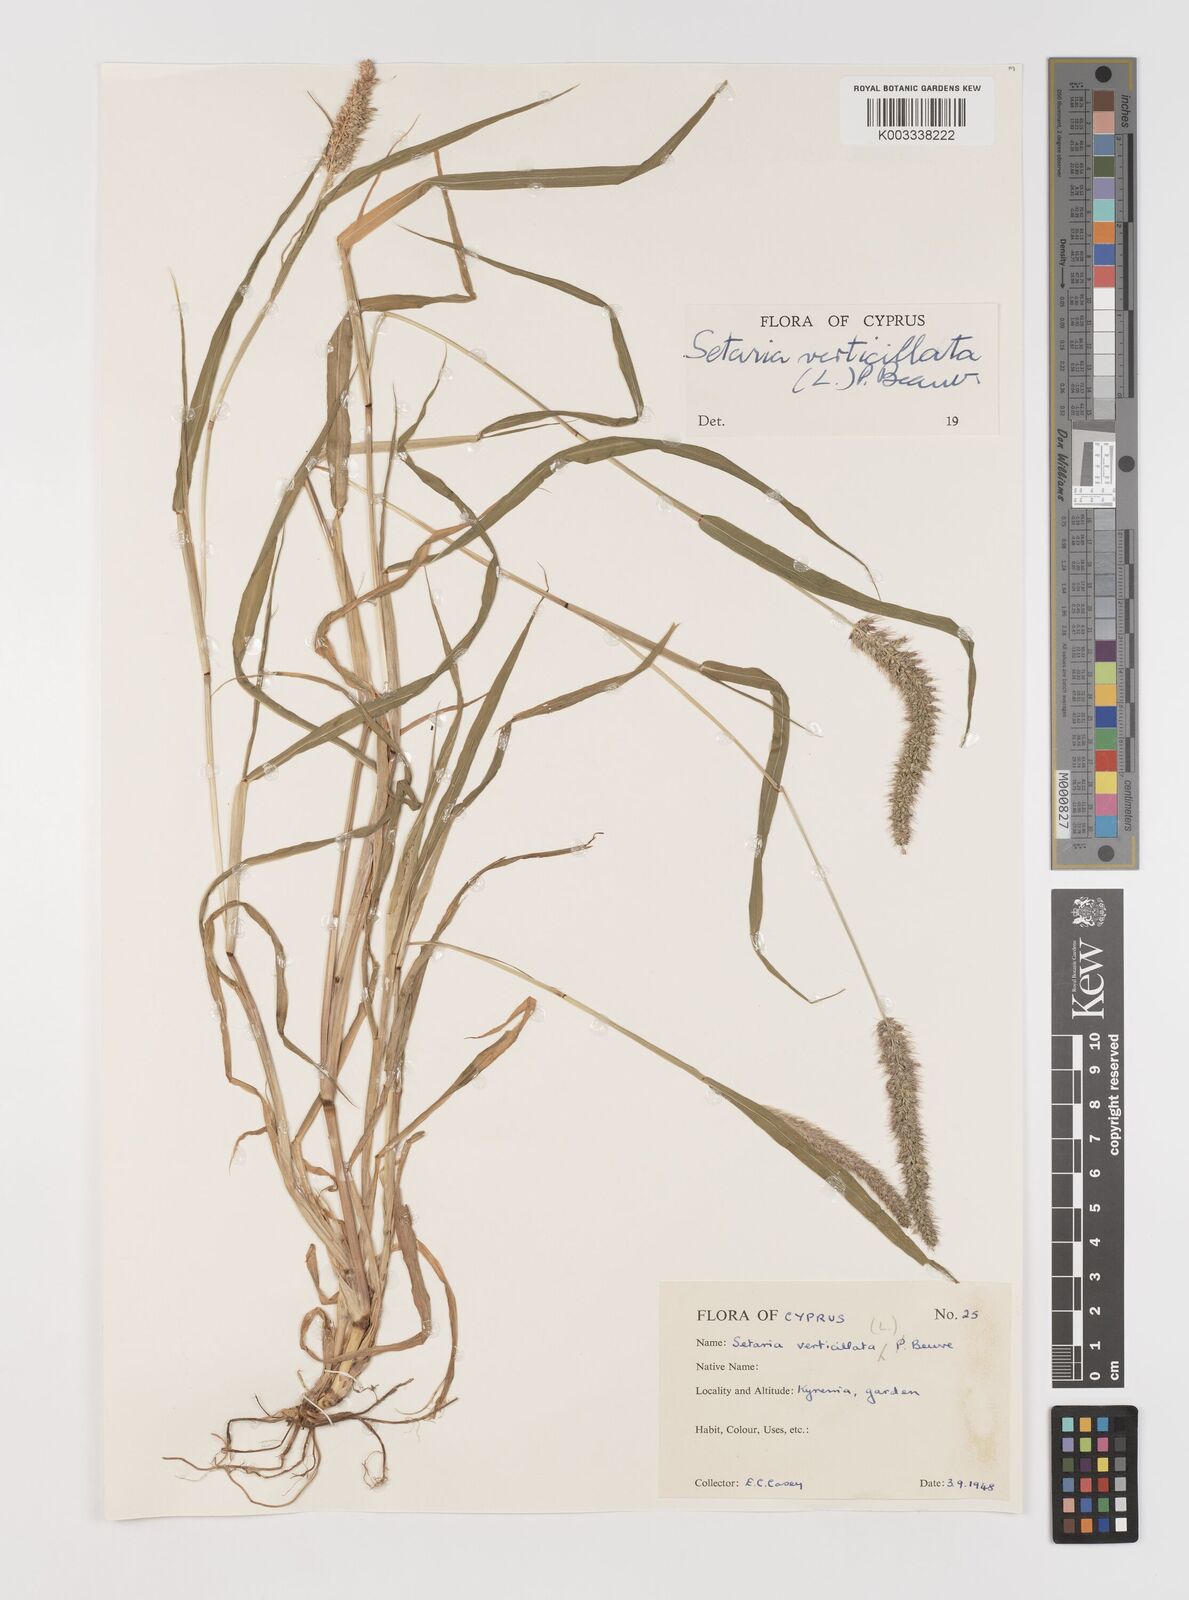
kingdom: Plantae
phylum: Tracheophyta
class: Liliopsida
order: Poales
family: Poaceae
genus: Setaria
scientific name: Setaria verticillata
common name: Hooked bristlegrass
